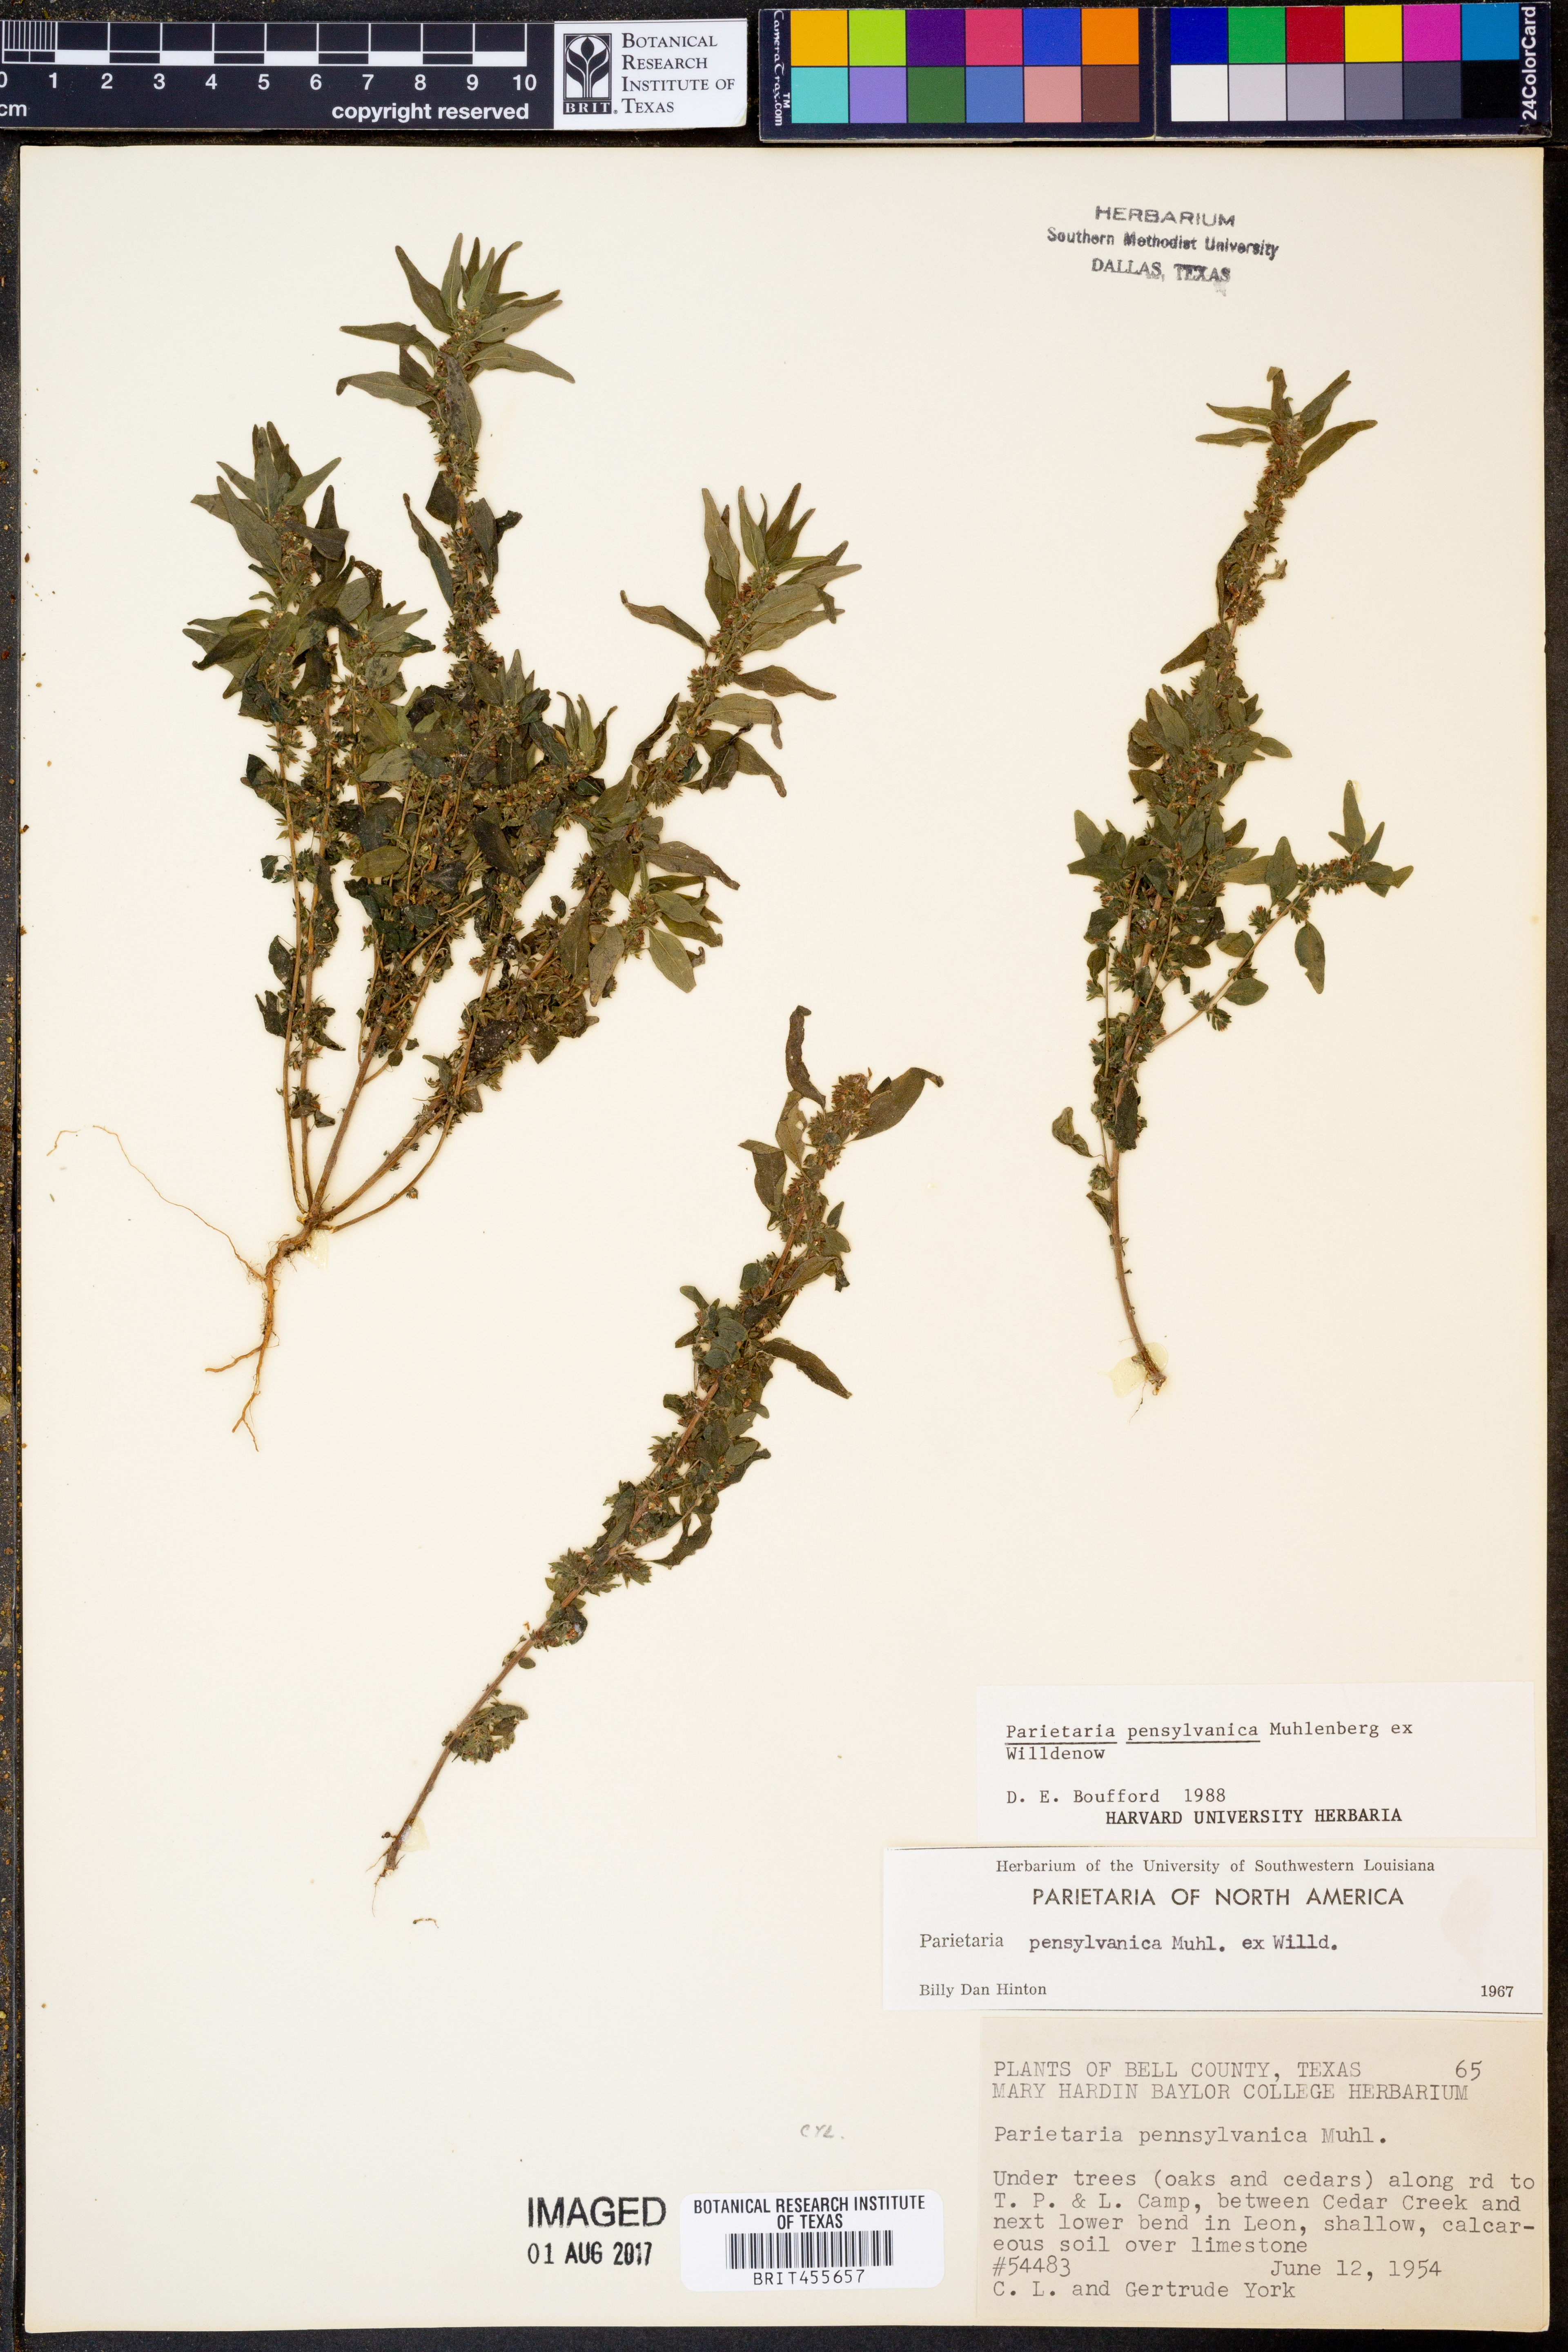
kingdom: Plantae
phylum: Tracheophyta
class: Magnoliopsida
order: Rosales
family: Urticaceae
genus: Parietaria
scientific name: Parietaria pensylvanica
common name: Pennsylvania pellitory
